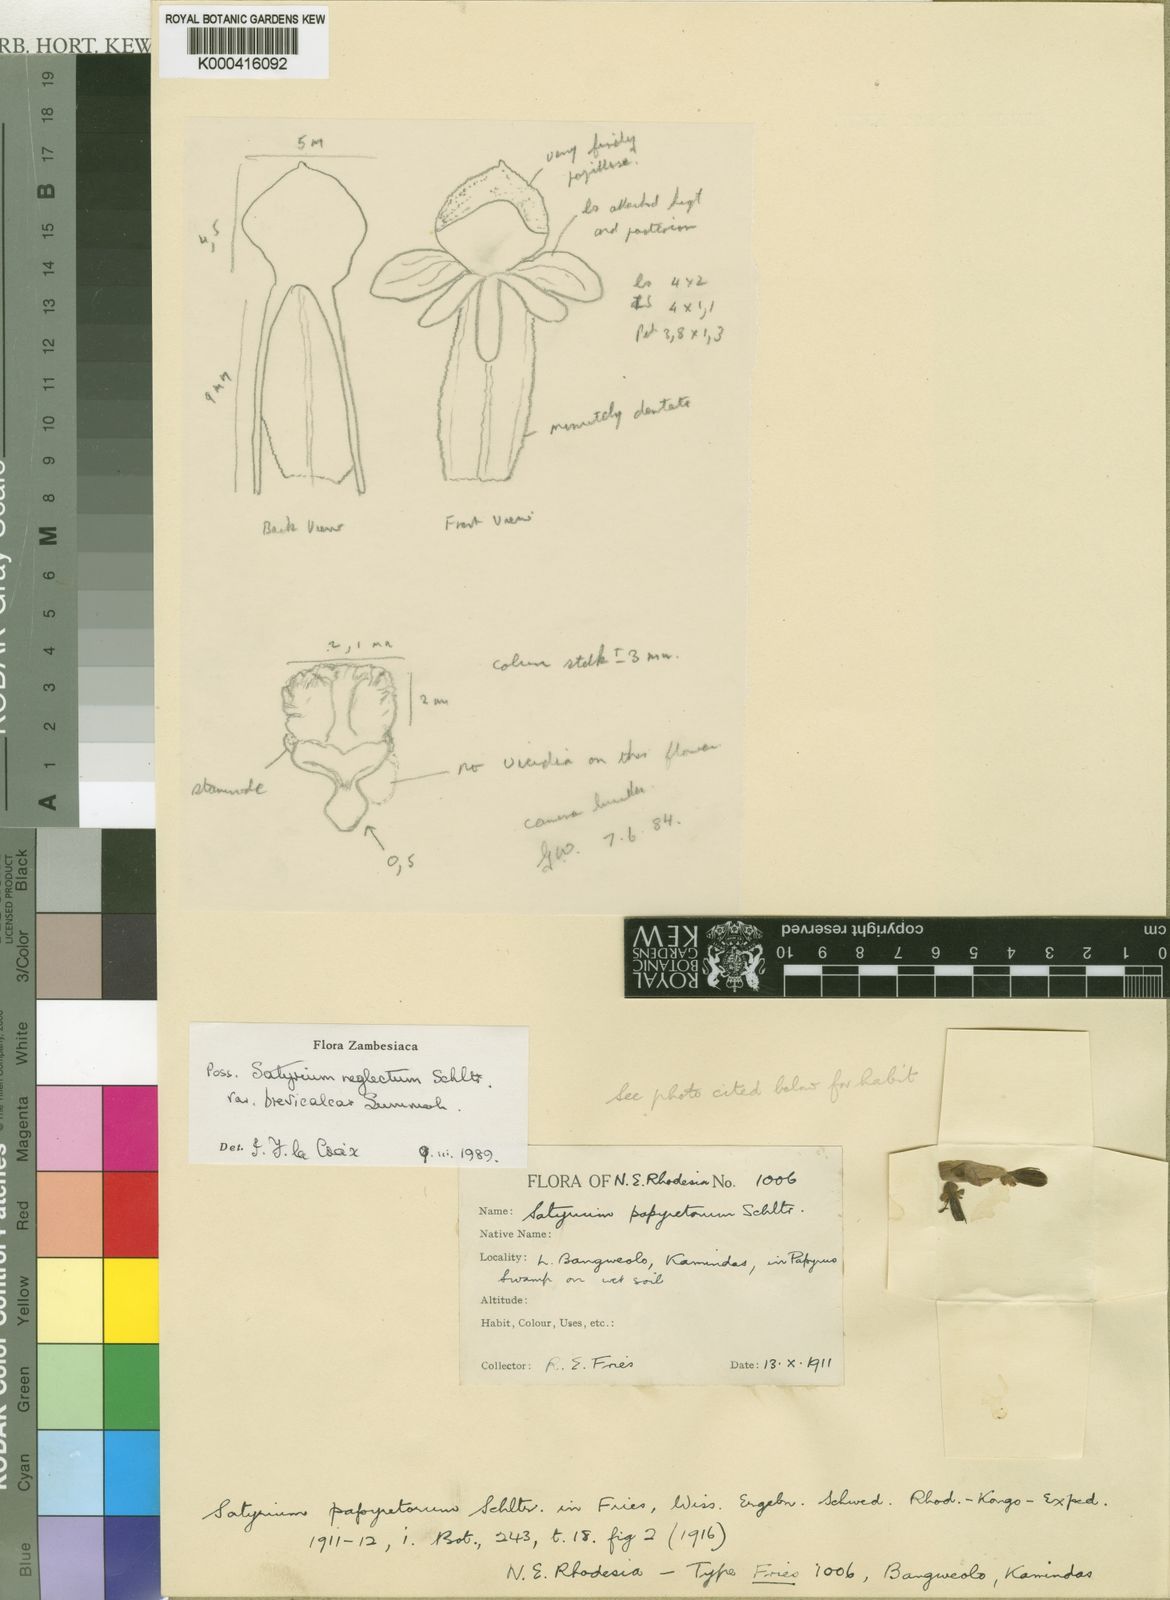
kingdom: Plantae
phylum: Tracheophyta
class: Liliopsida
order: Asparagales
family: Orchidaceae
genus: Satyrium
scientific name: Satyrium neglectum
